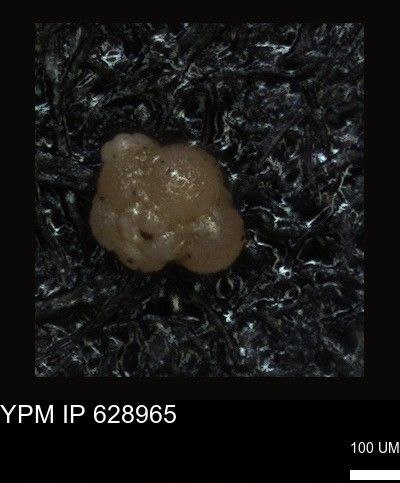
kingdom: Chromista
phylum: Foraminifera
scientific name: Foraminifera
